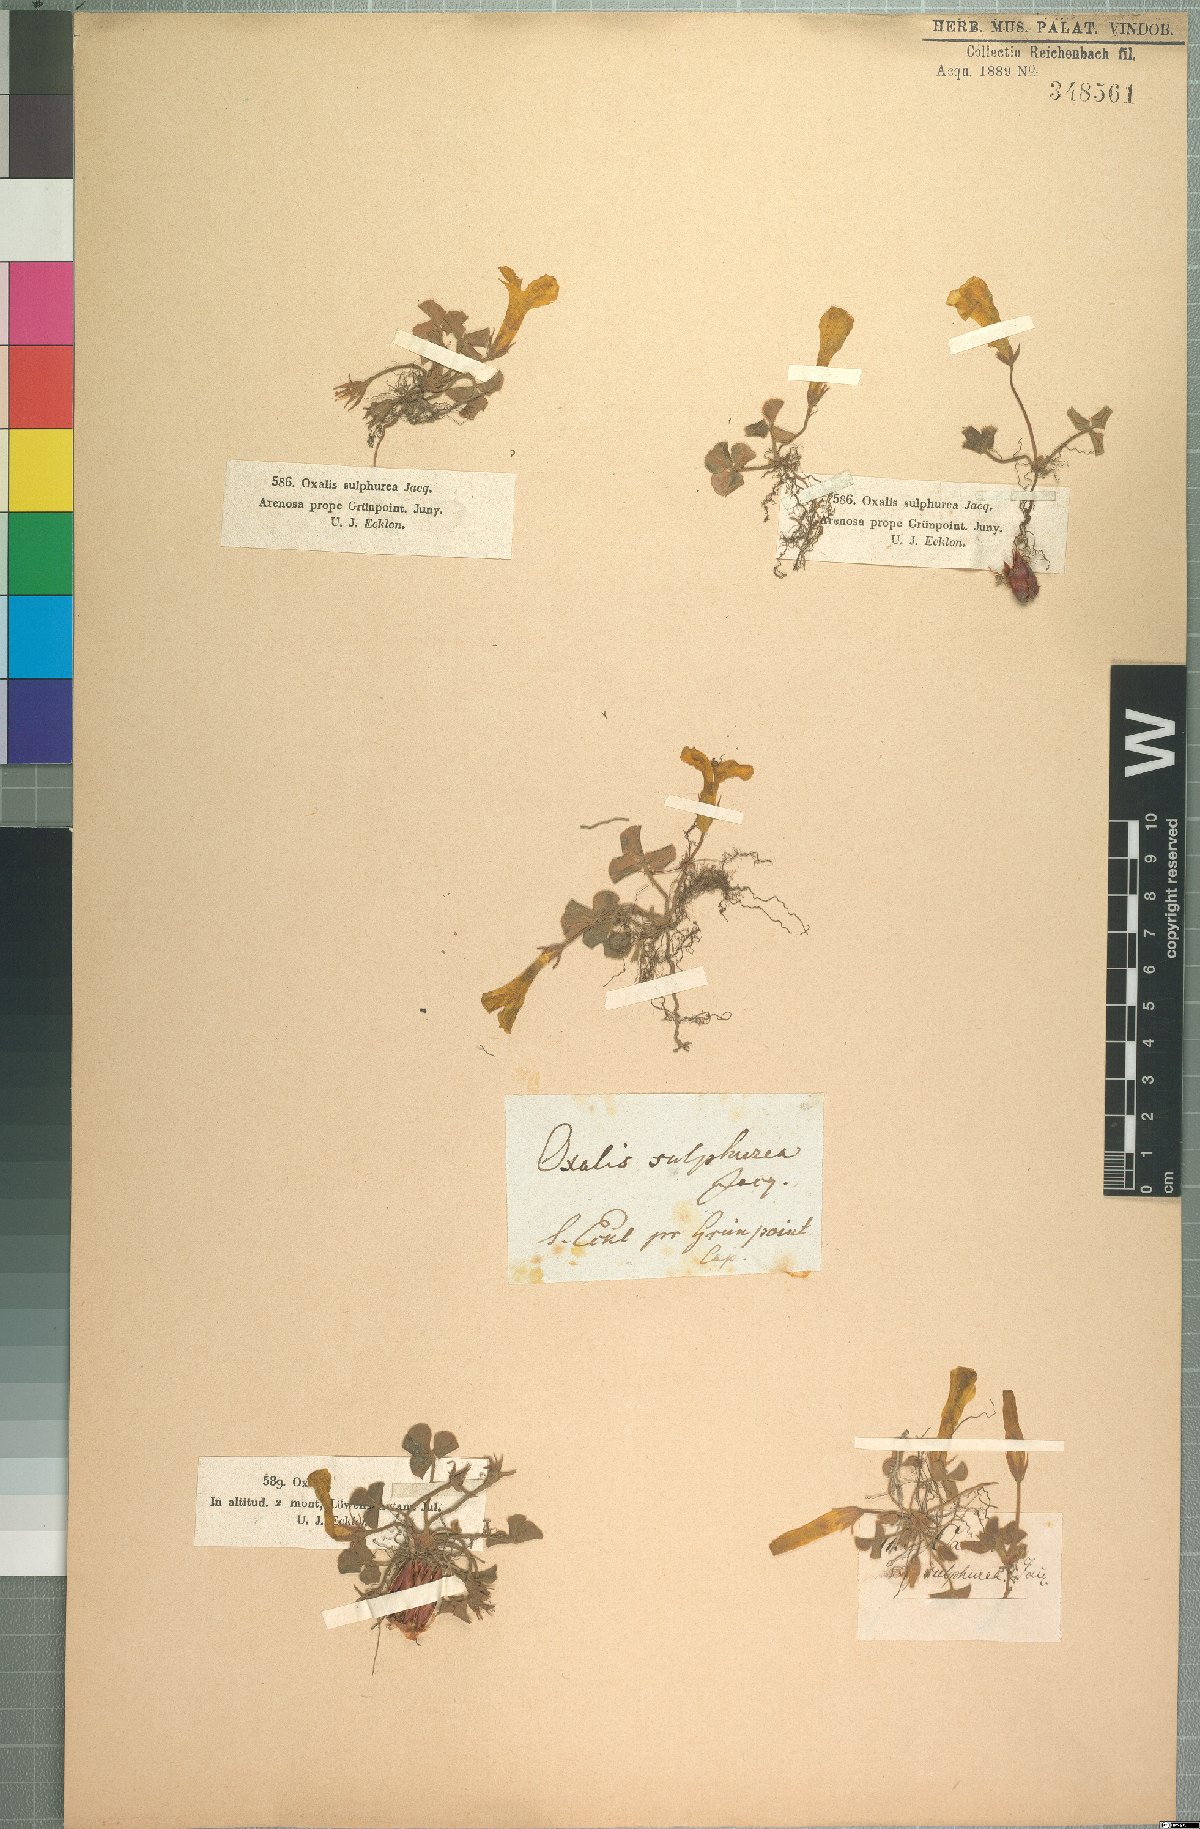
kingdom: Plantae
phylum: Tracheophyta
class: Magnoliopsida
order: Oxalidales
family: Oxalidaceae
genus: Oxalis
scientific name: Oxalis eckloniana
